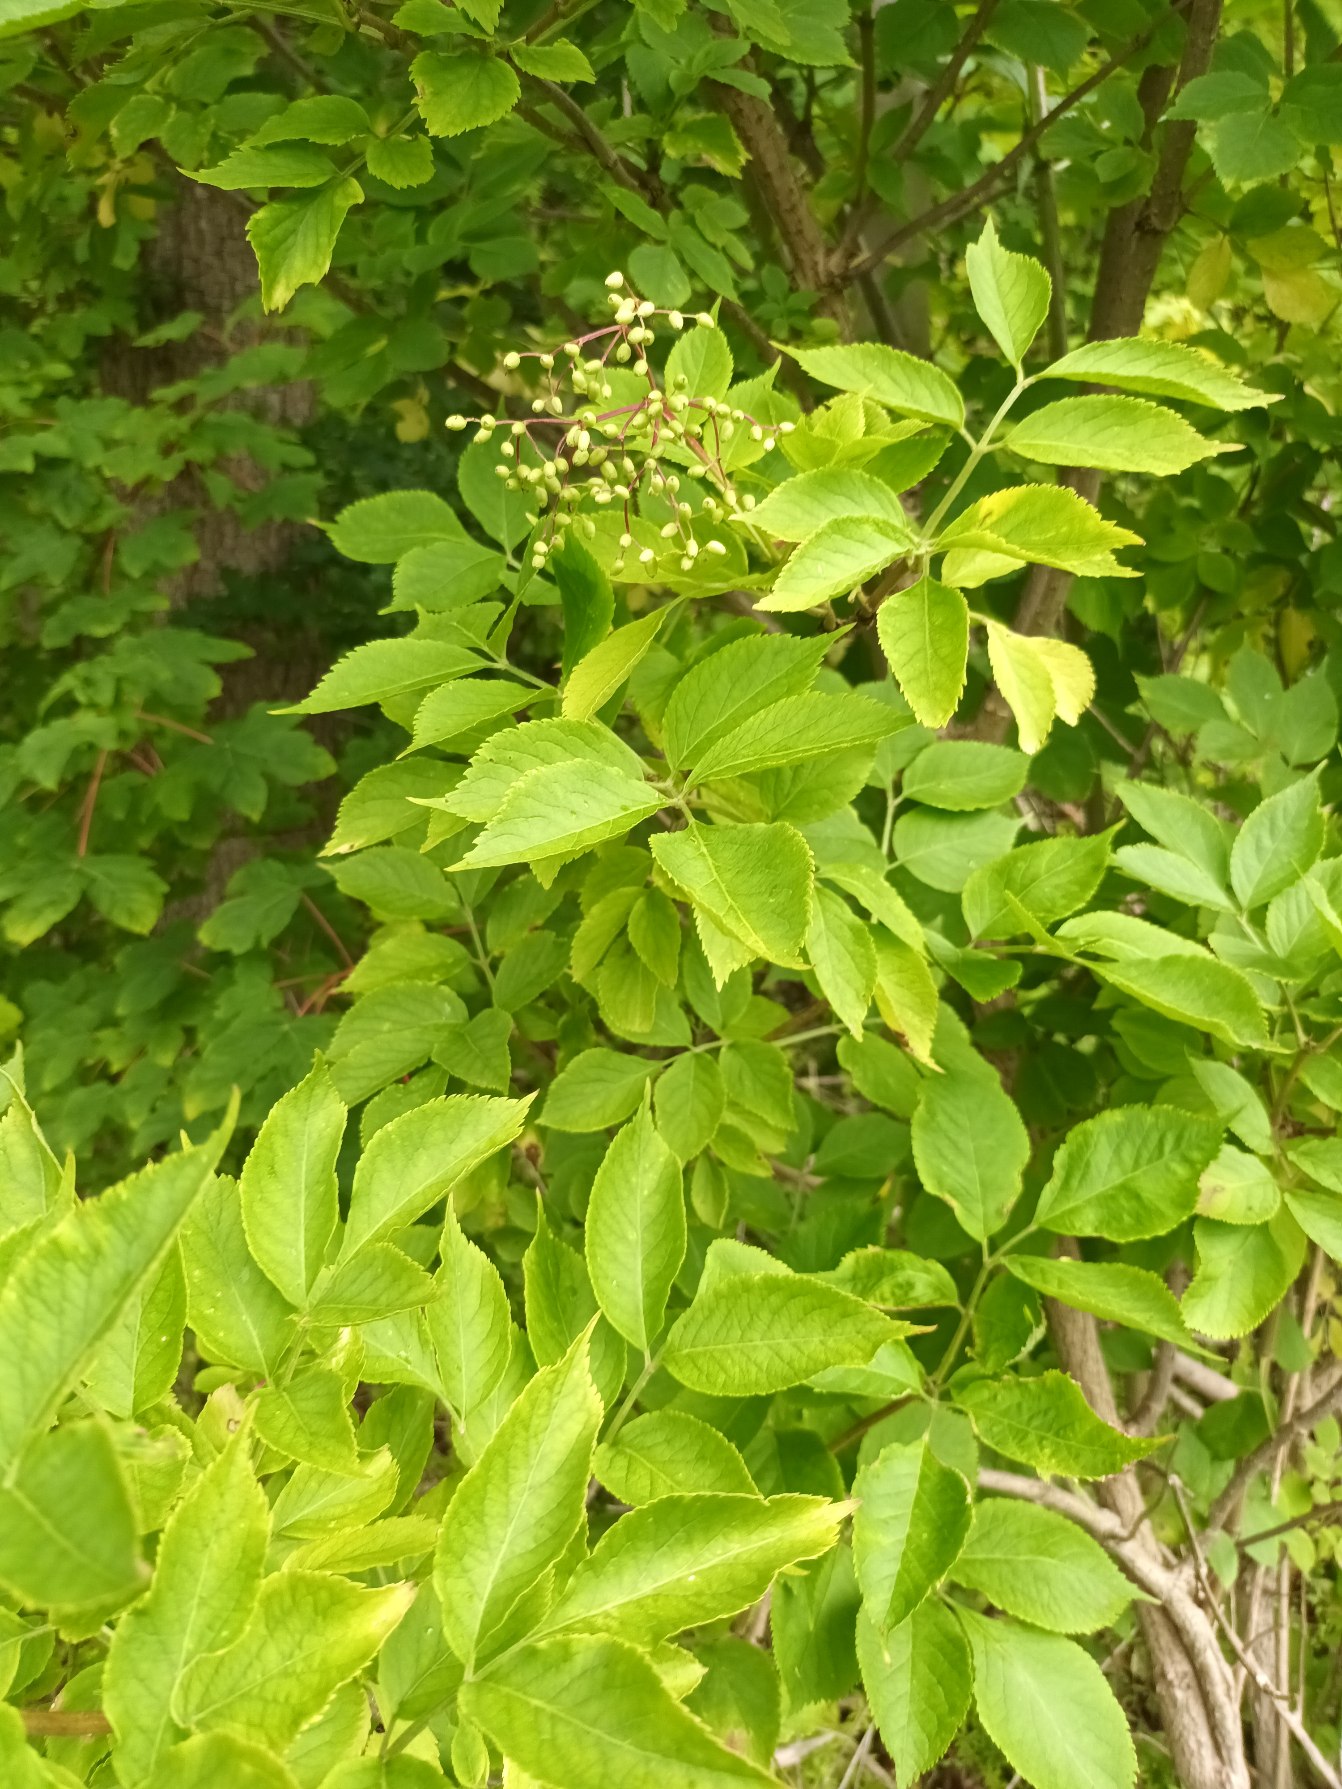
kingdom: Plantae
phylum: Tracheophyta
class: Magnoliopsida
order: Dipsacales
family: Viburnaceae
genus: Sambucus
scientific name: Sambucus nigra
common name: Almindelig hyld
